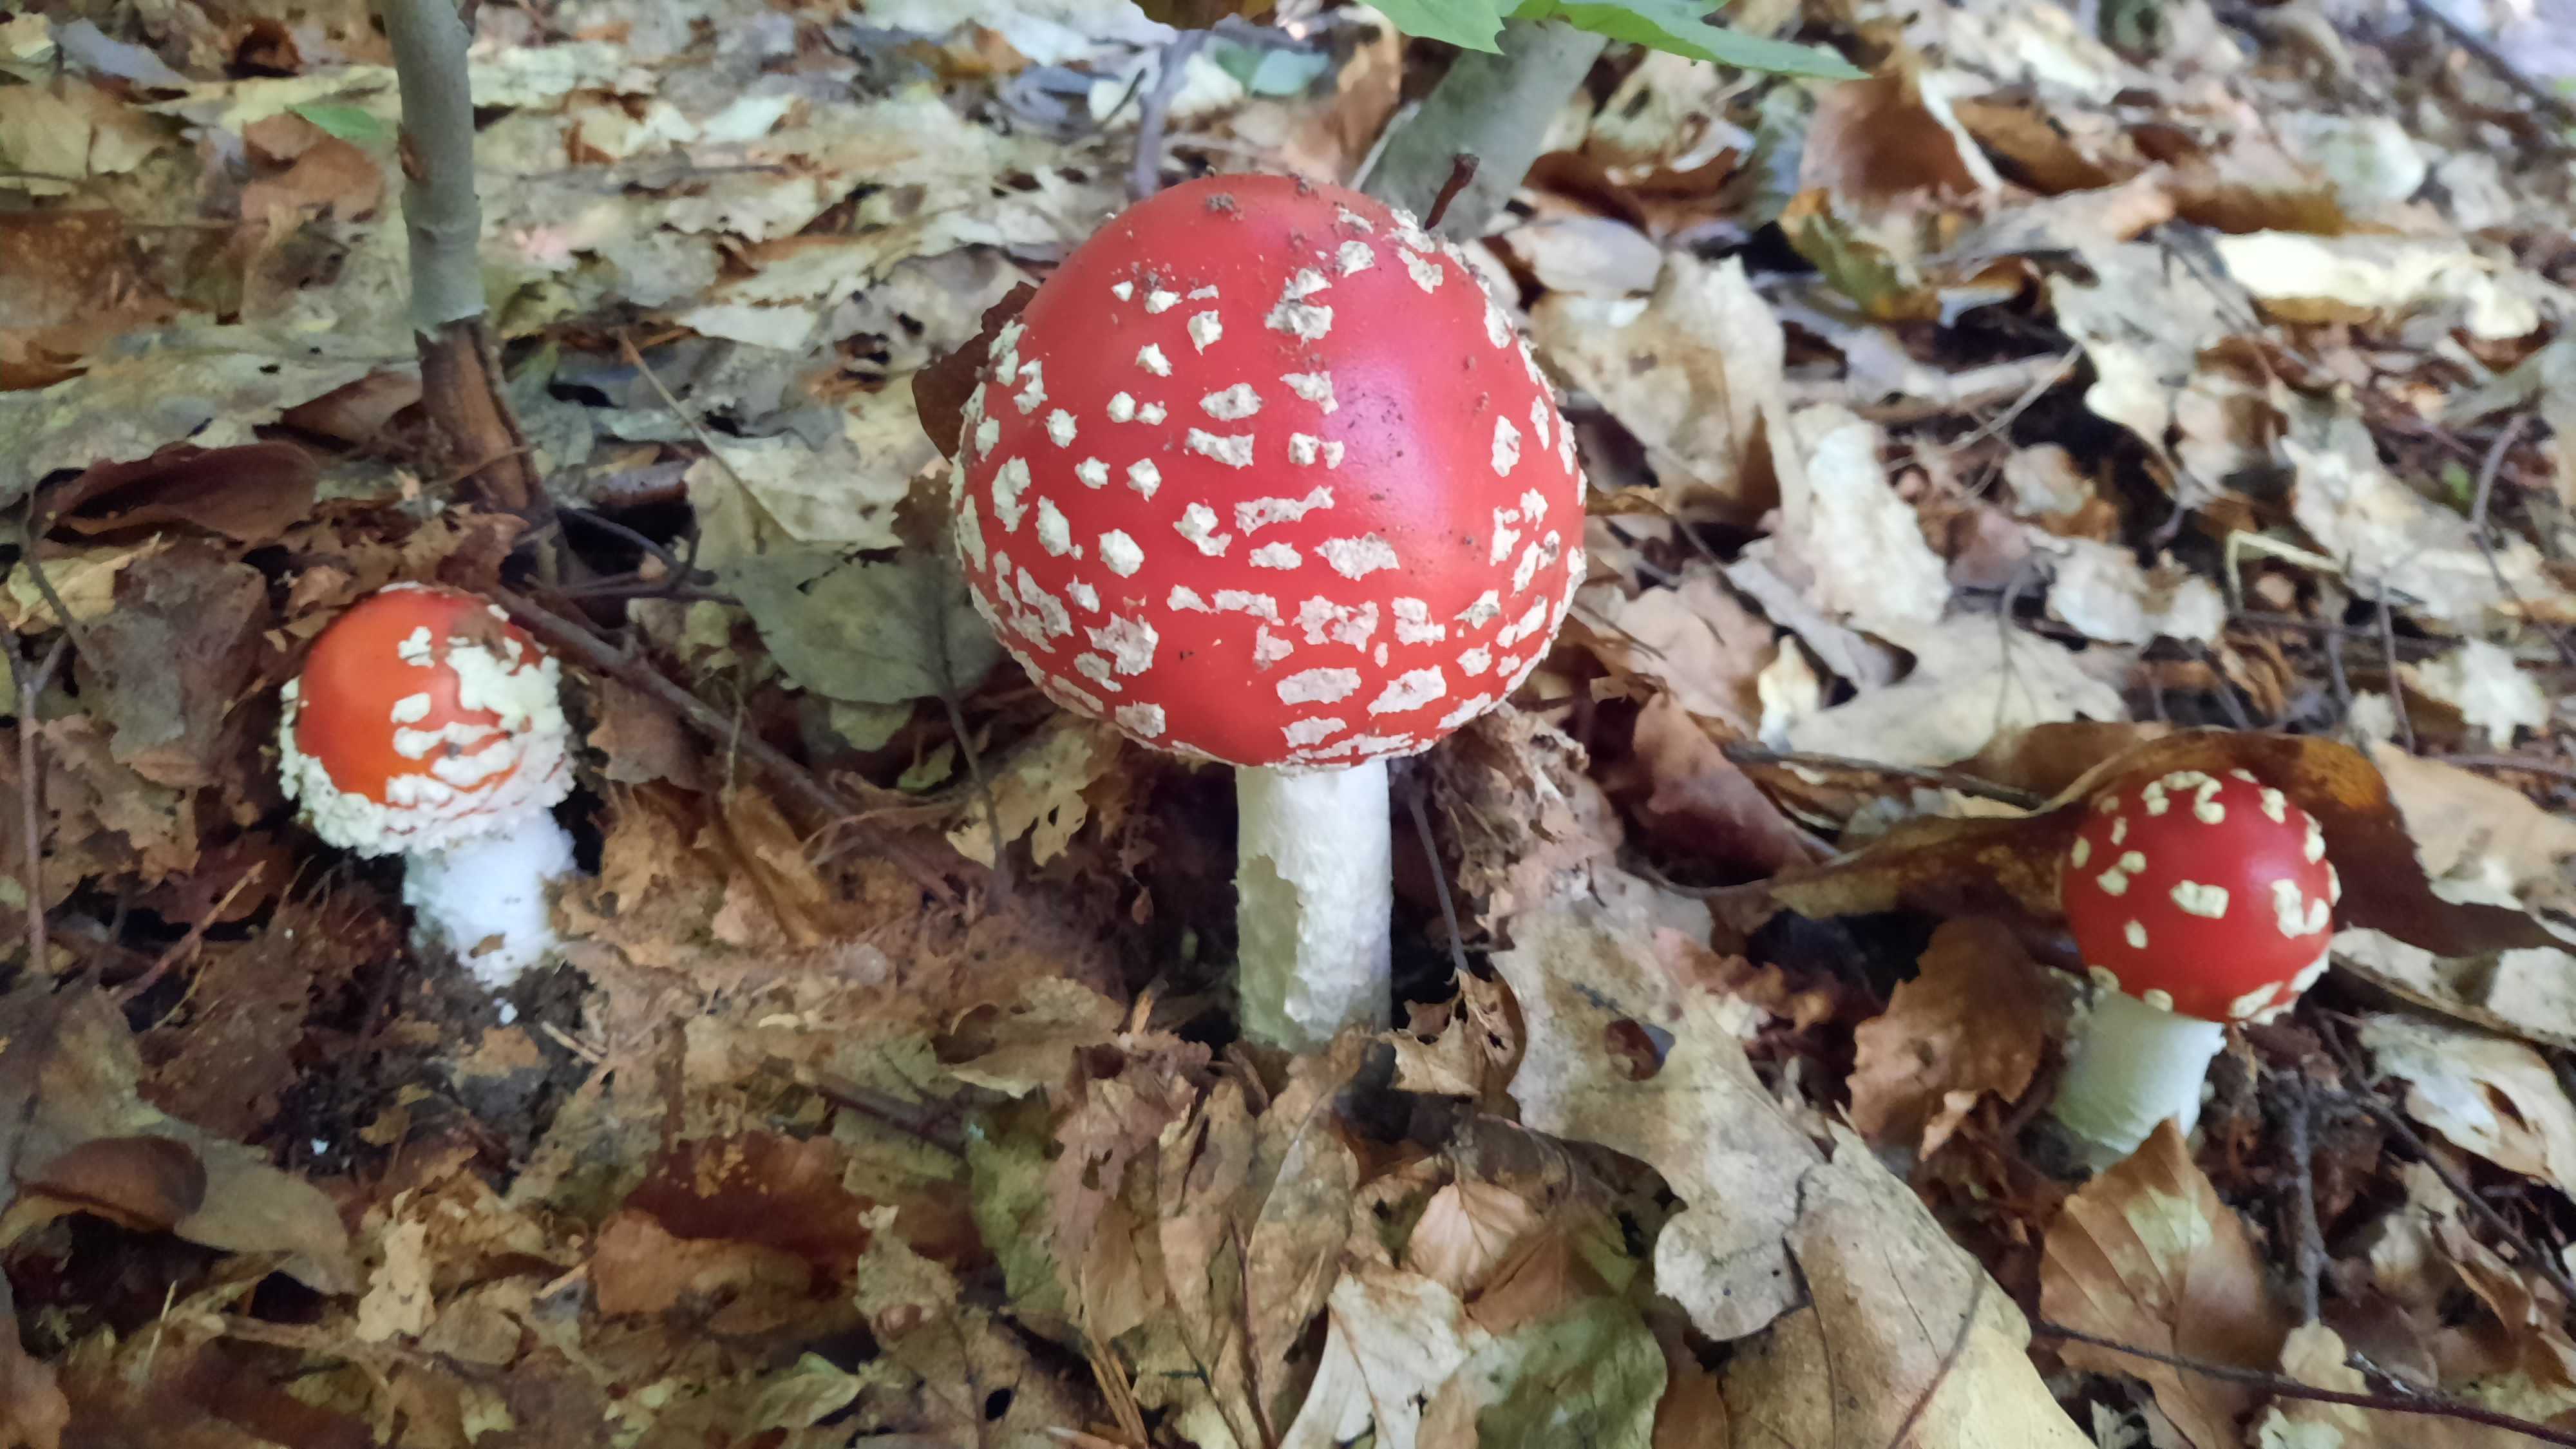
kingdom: Fungi
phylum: Basidiomycota
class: Agaricomycetes
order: Agaricales
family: Amanitaceae
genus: Amanita
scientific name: Amanita muscaria
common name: rød fluesvamp
